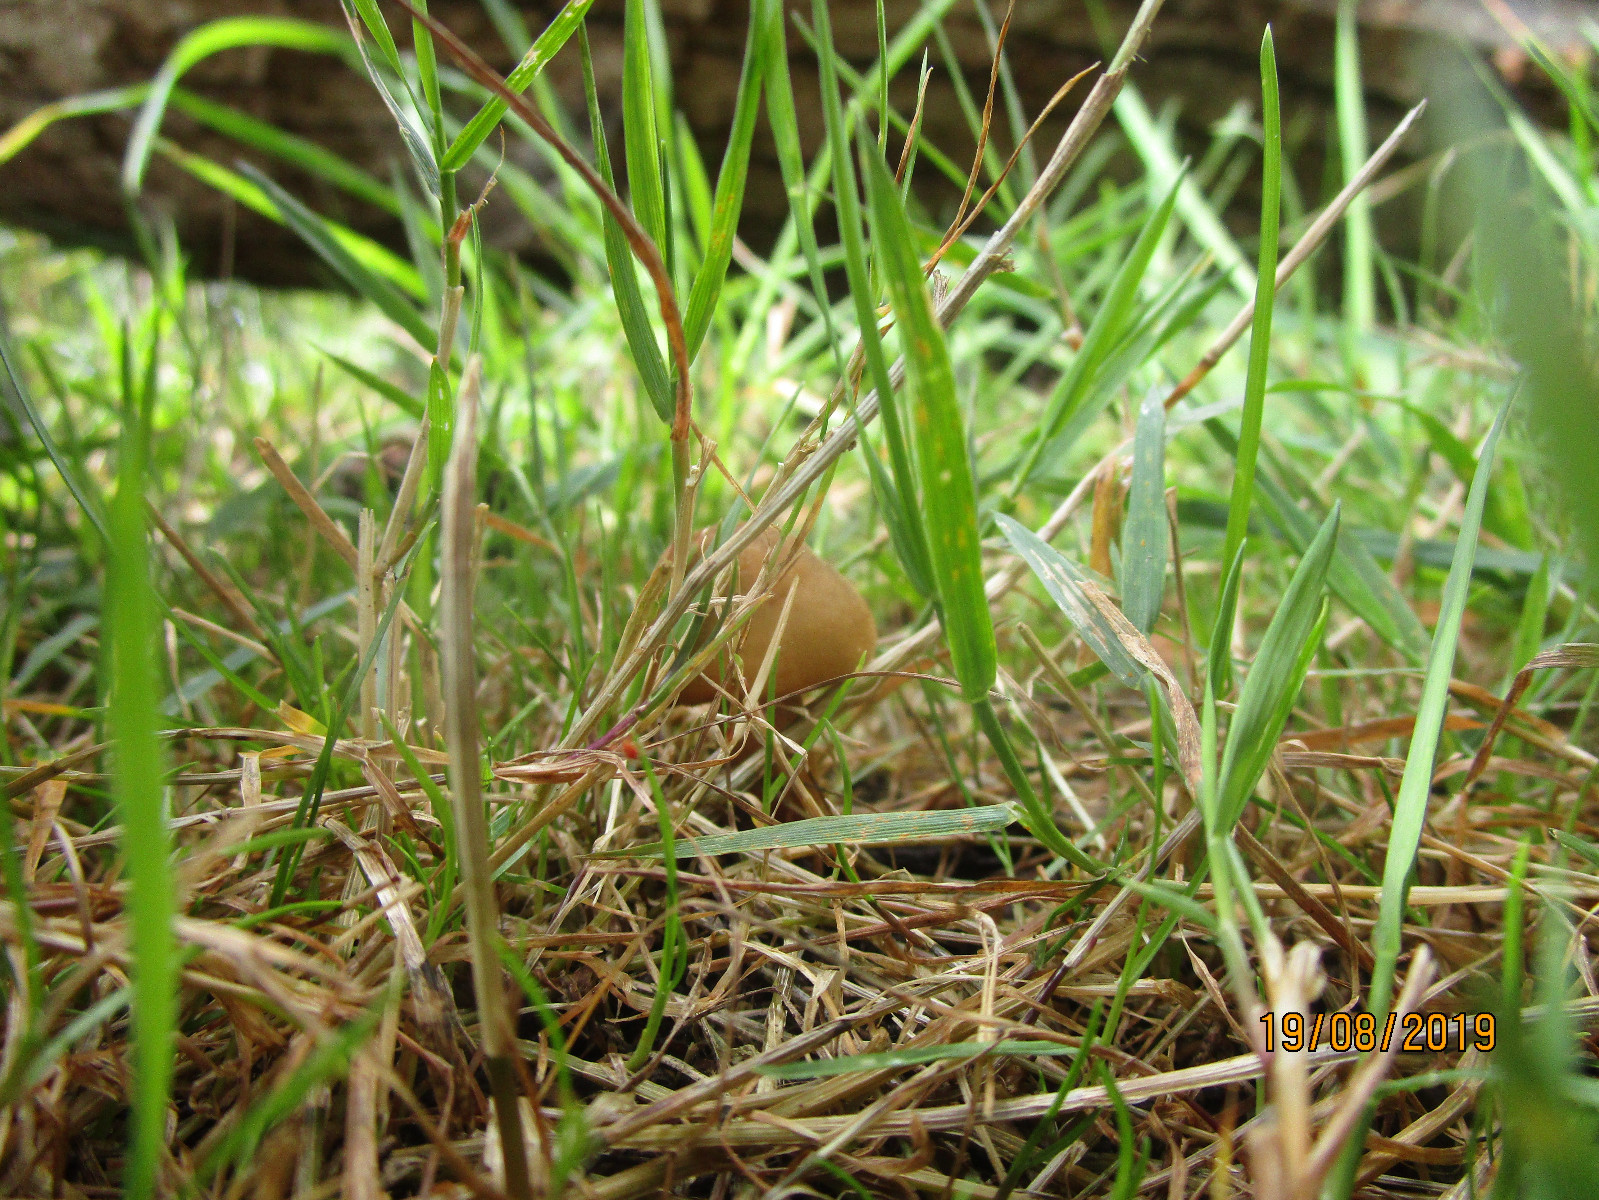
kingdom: Fungi
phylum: Basidiomycota
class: Agaricomycetes
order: Agaricales
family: Physalacriaceae
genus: Xerula
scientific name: Xerula pudens
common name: filtet pælerodshat
